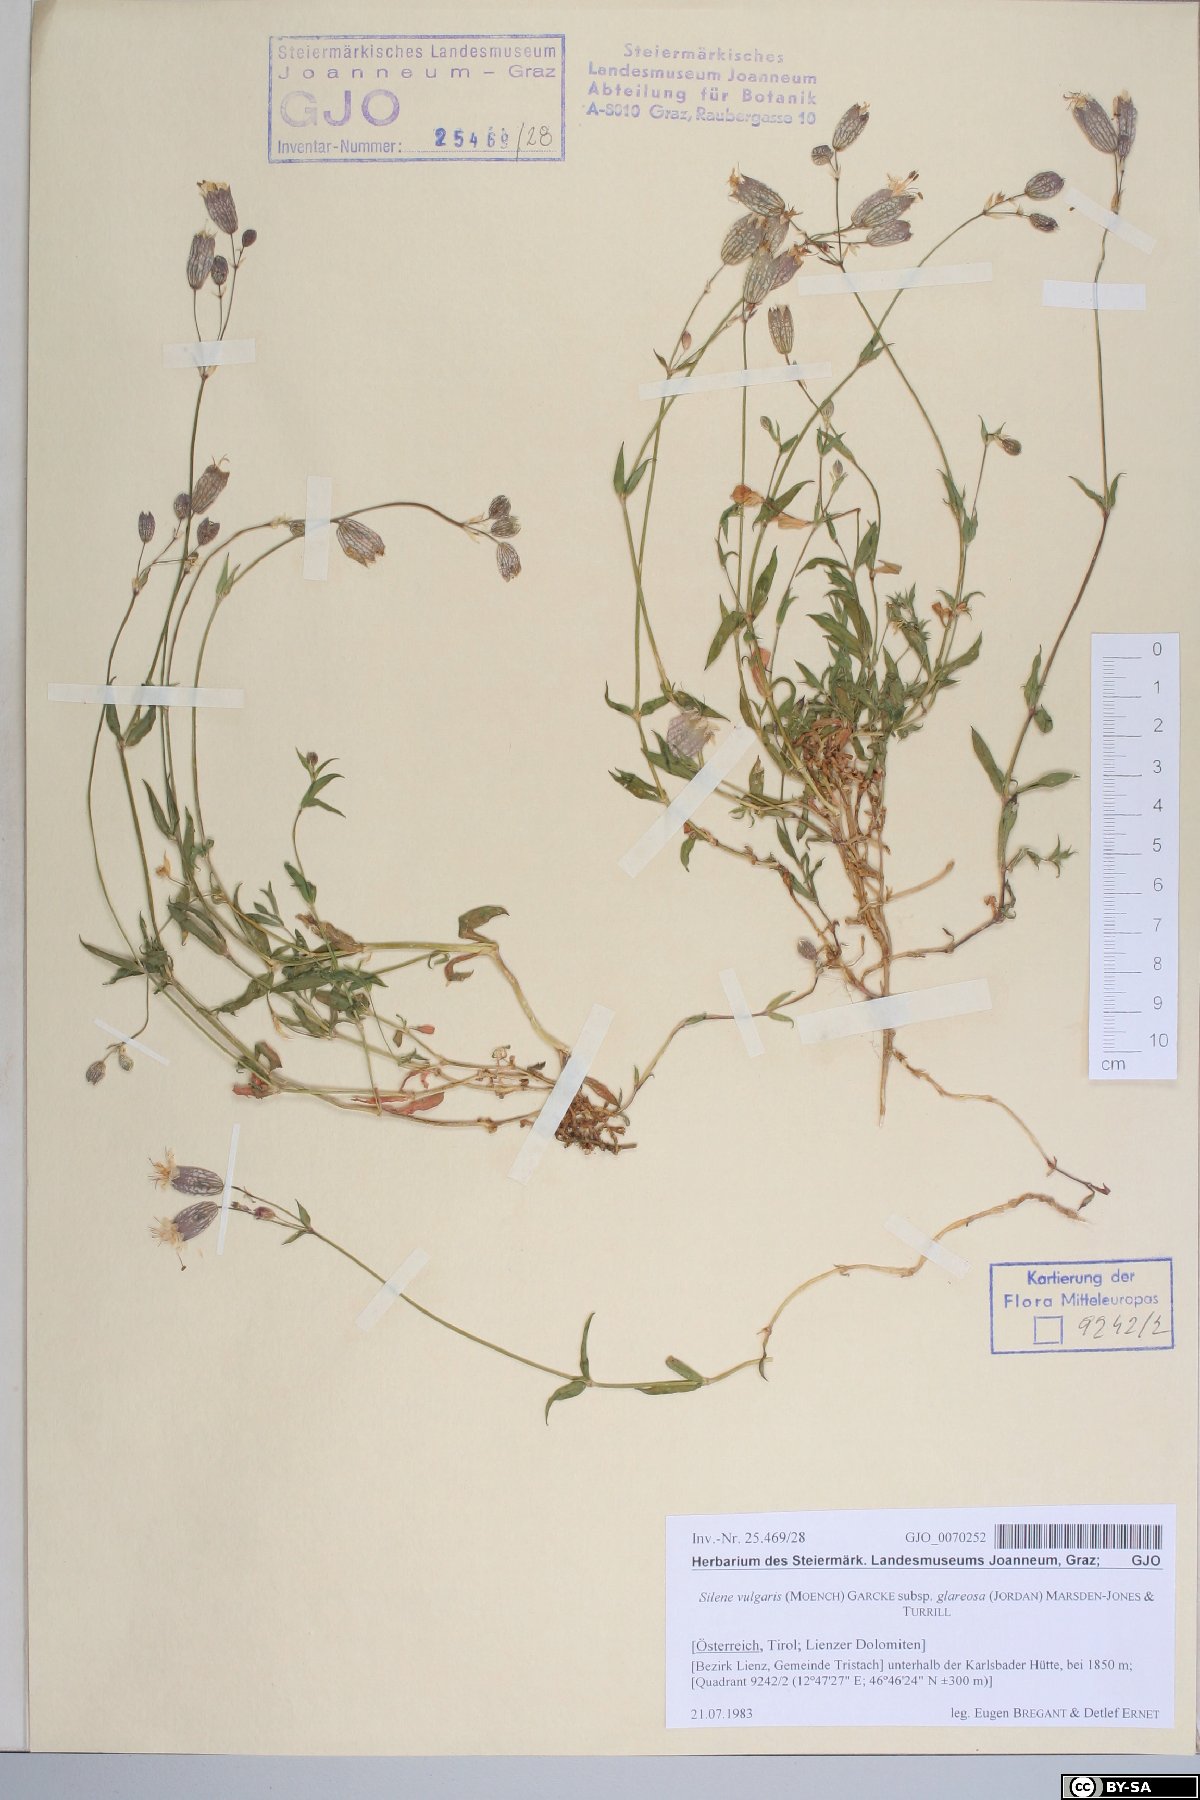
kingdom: Plantae
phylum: Tracheophyta
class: Magnoliopsida
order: Caryophyllales
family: Caryophyllaceae
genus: Silene
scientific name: Silene glareosa
